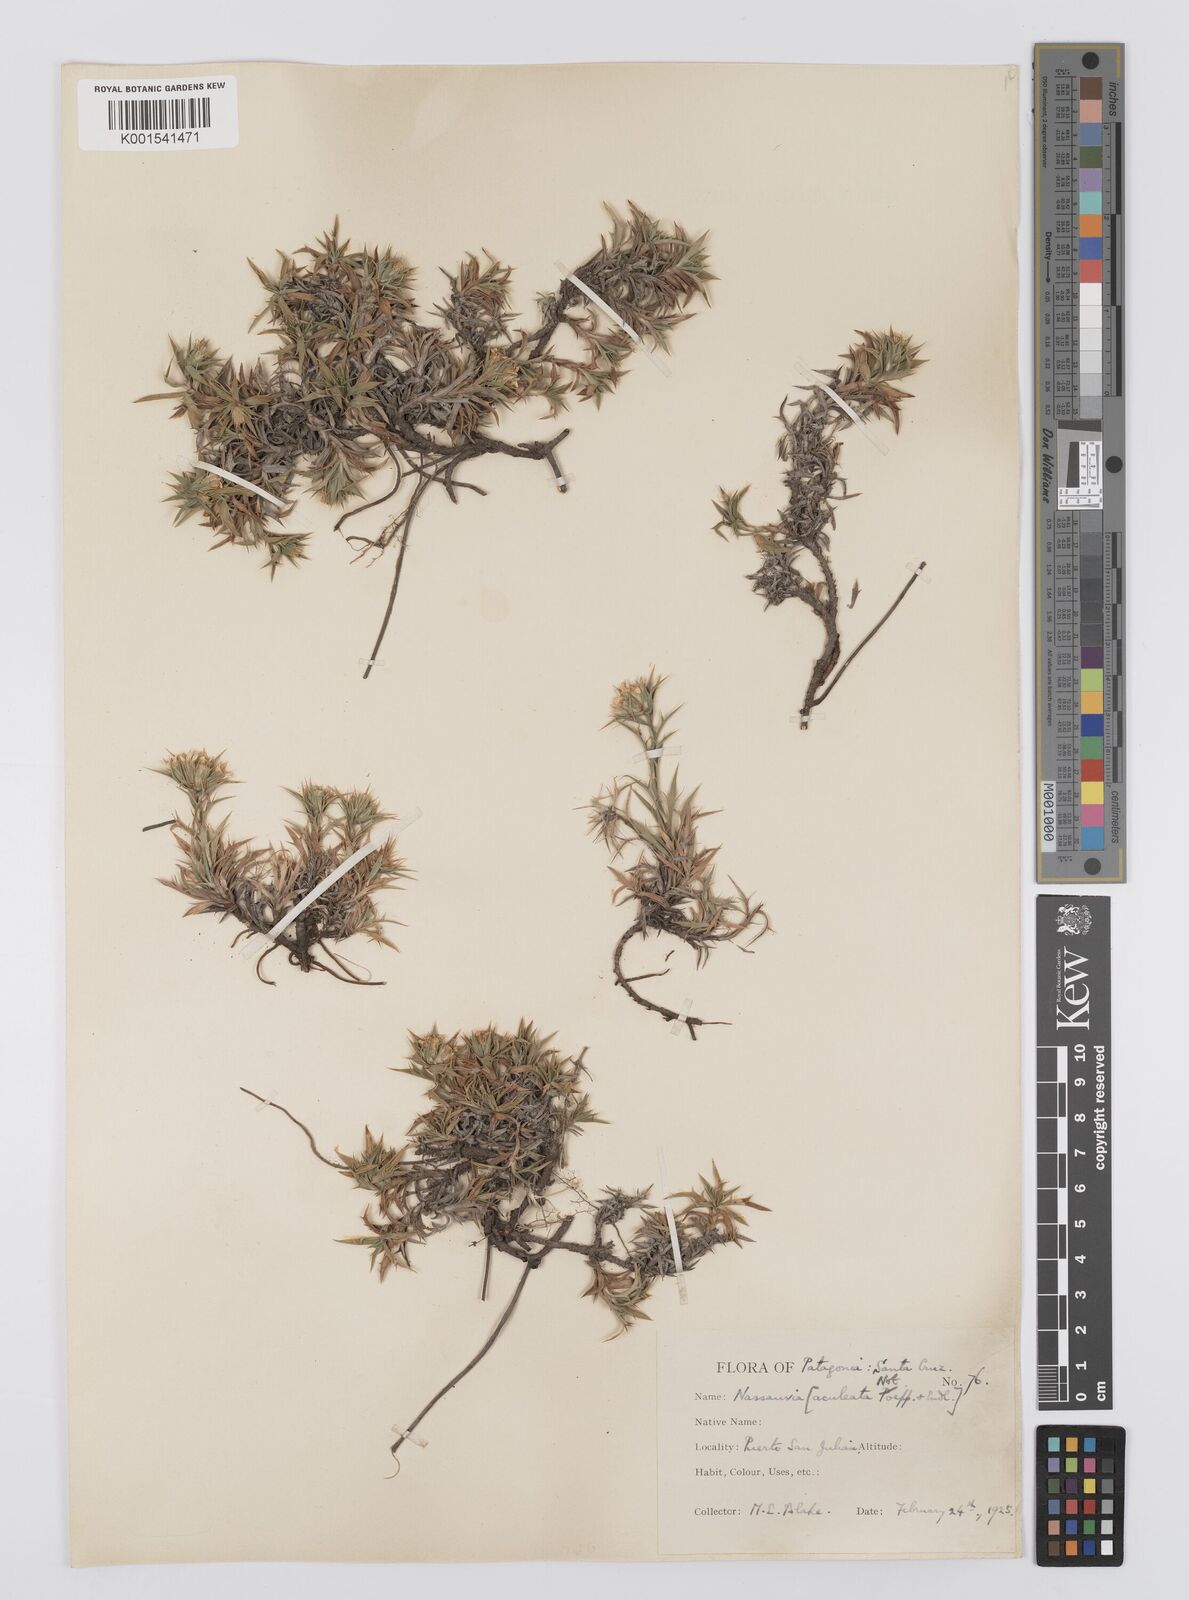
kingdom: Plantae
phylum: Tracheophyta
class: Magnoliopsida
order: Asterales
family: Asteraceae
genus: Nassauvia
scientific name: Nassauvia
